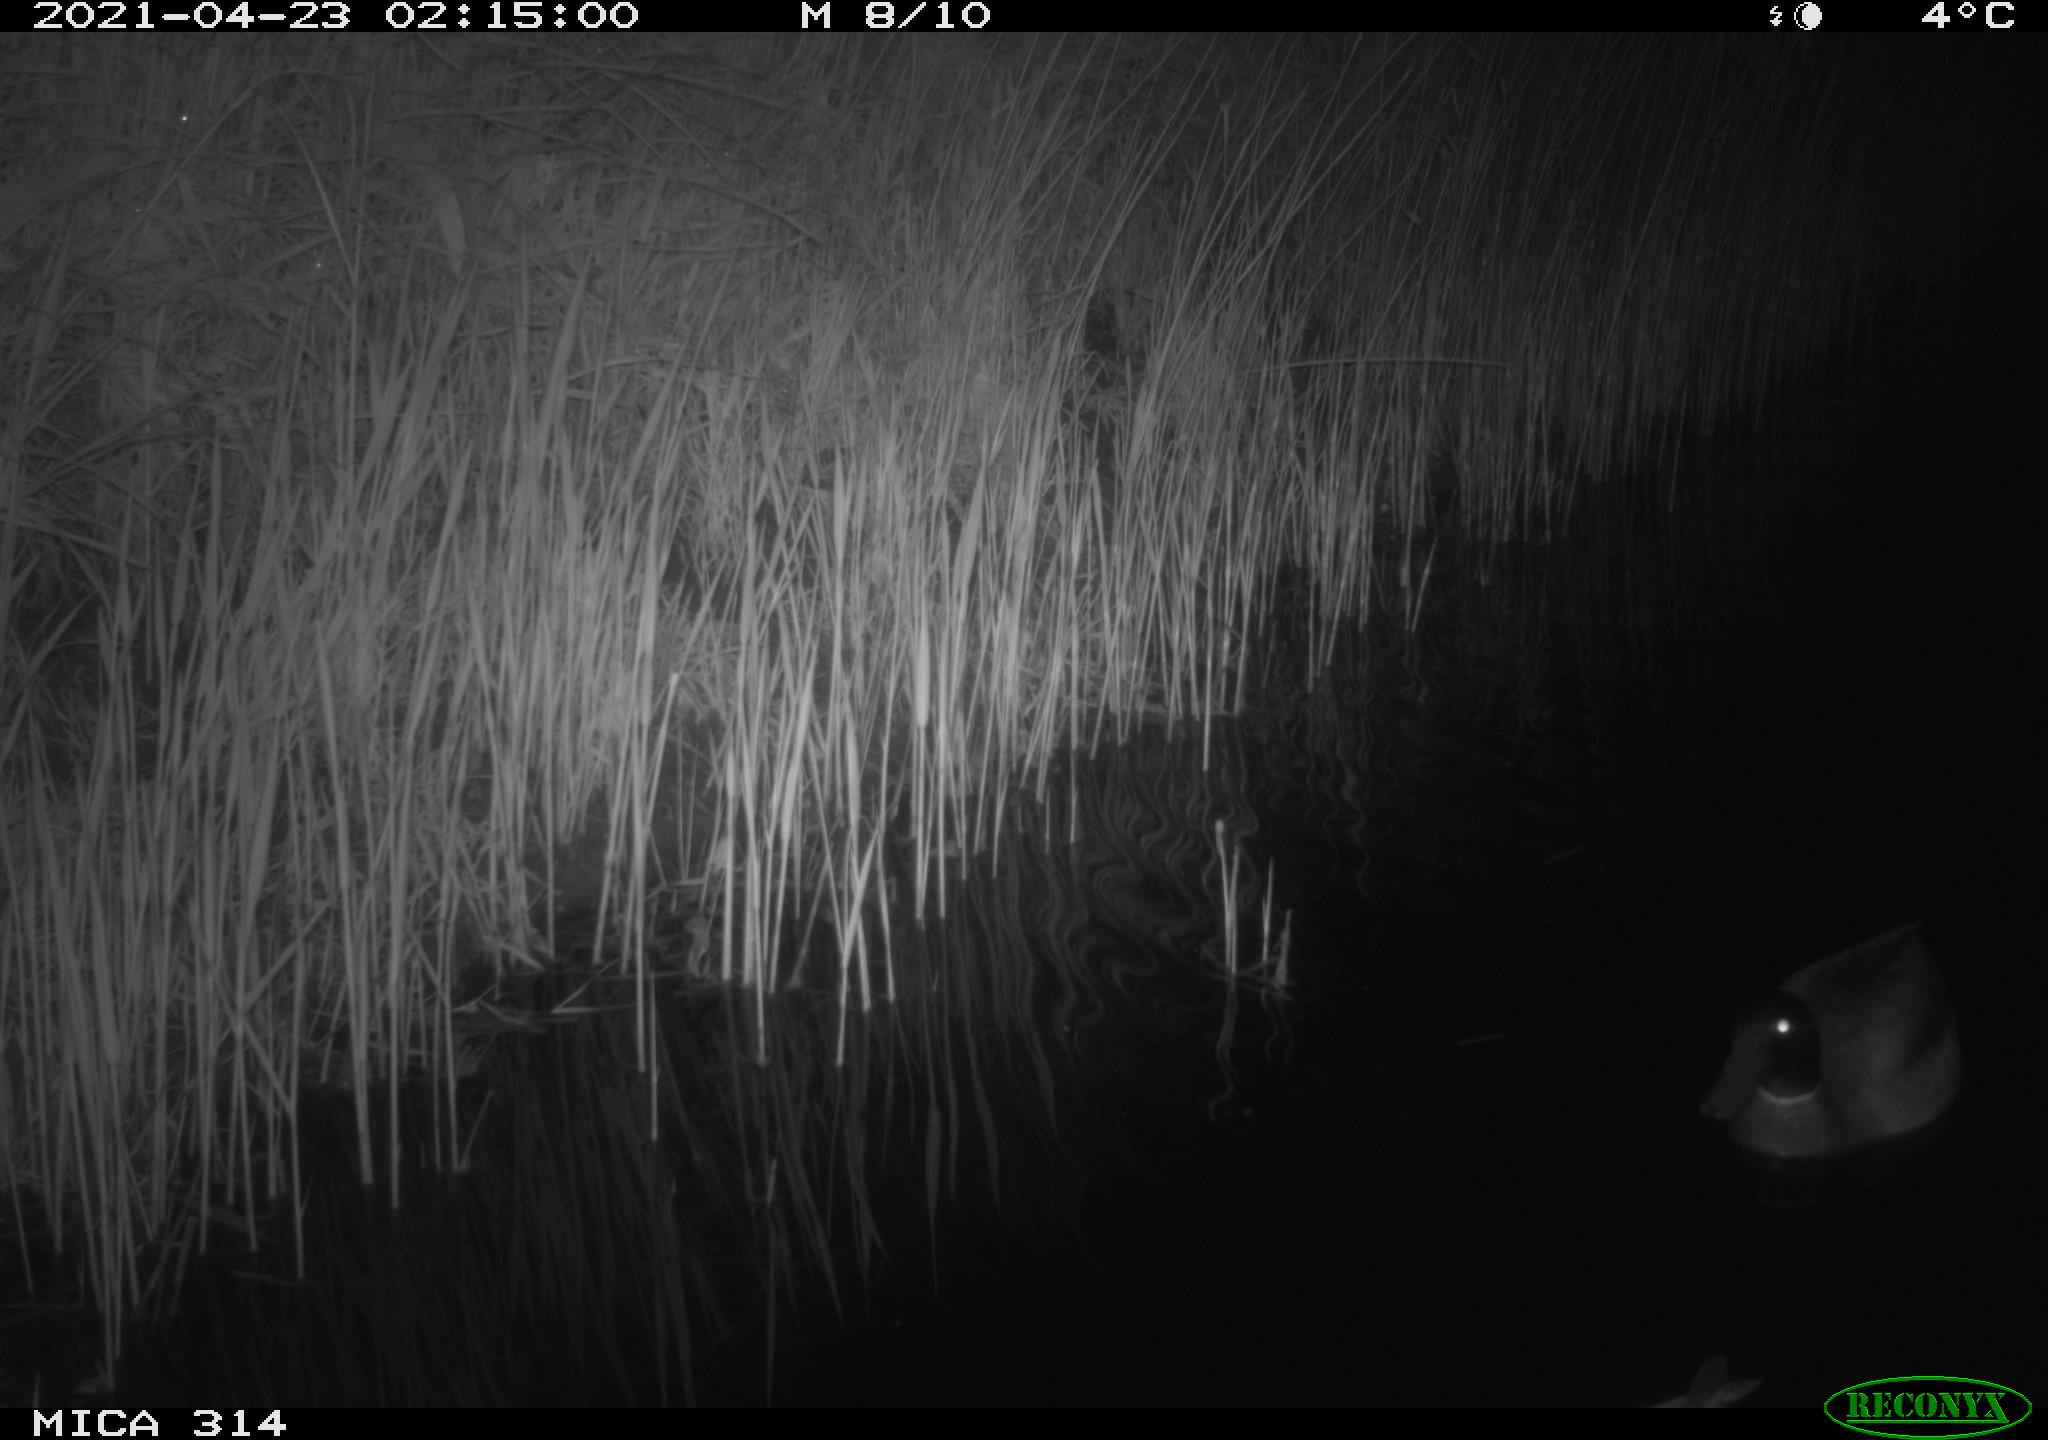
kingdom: Animalia
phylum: Chordata
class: Aves
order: Anseriformes
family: Anatidae
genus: Anas
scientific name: Anas platyrhynchos
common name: Mallard
